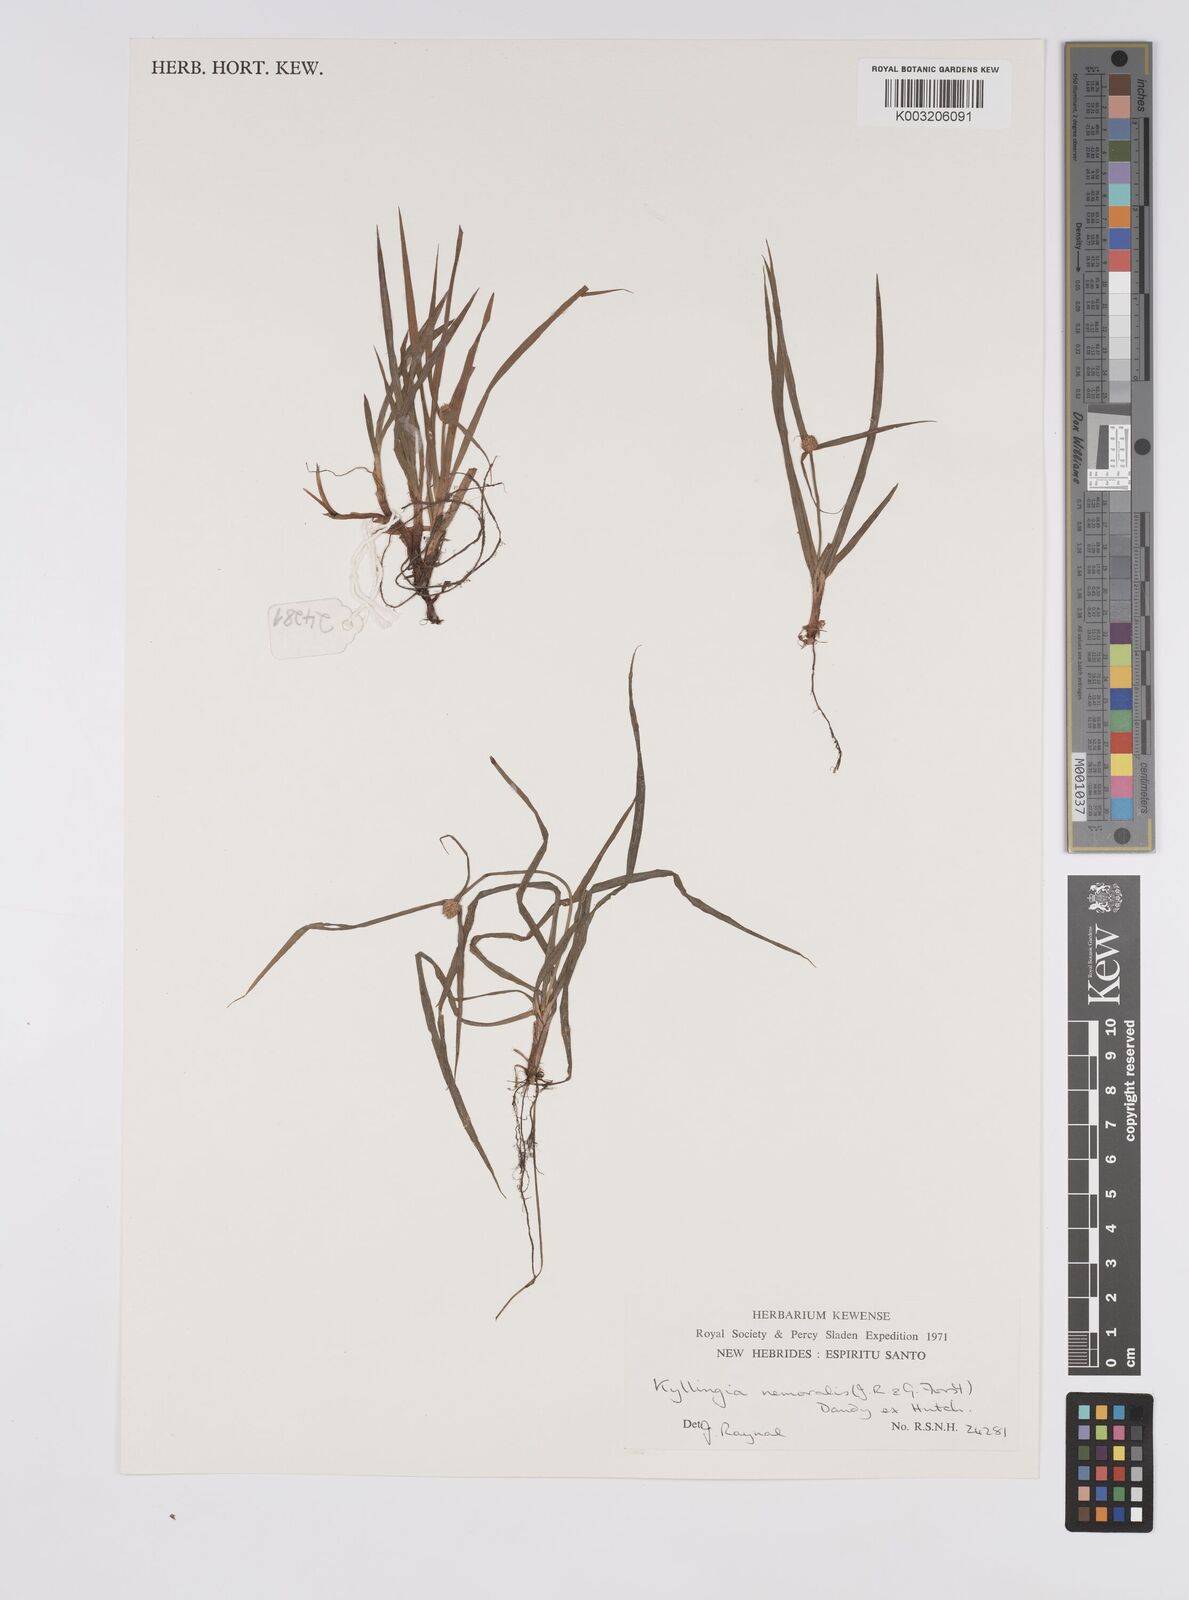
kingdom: Plantae
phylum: Tracheophyta
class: Liliopsida
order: Poales
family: Cyperaceae
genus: Cyperus
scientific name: Cyperus nemoralis
